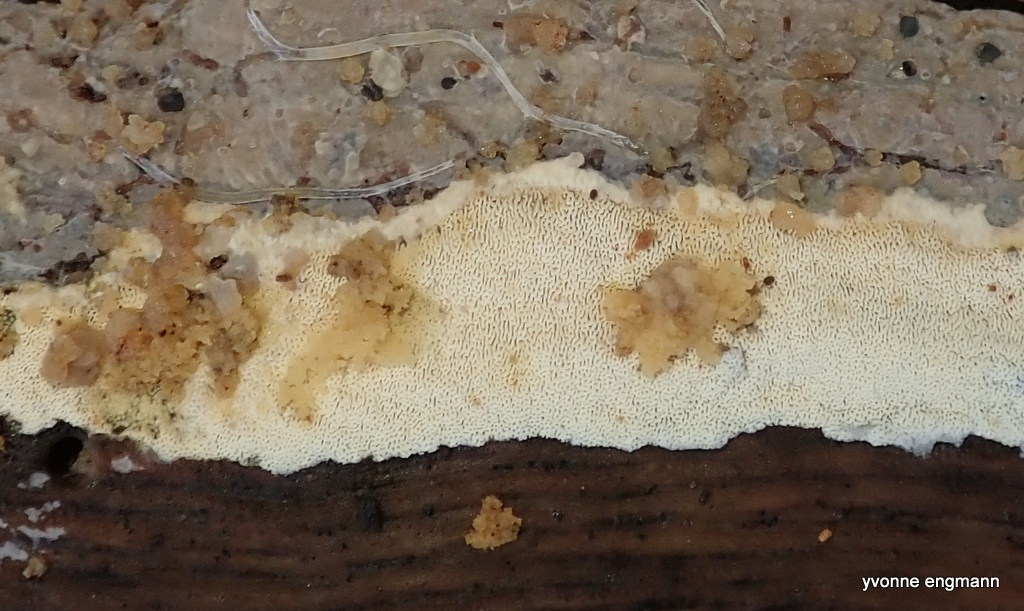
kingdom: Fungi
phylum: Basidiomycota
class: Agaricomycetes
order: Hymenochaetales
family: Schizoporaceae
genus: Xylodon
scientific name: Xylodon subtropicus
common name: labyrint-tandsvamp
